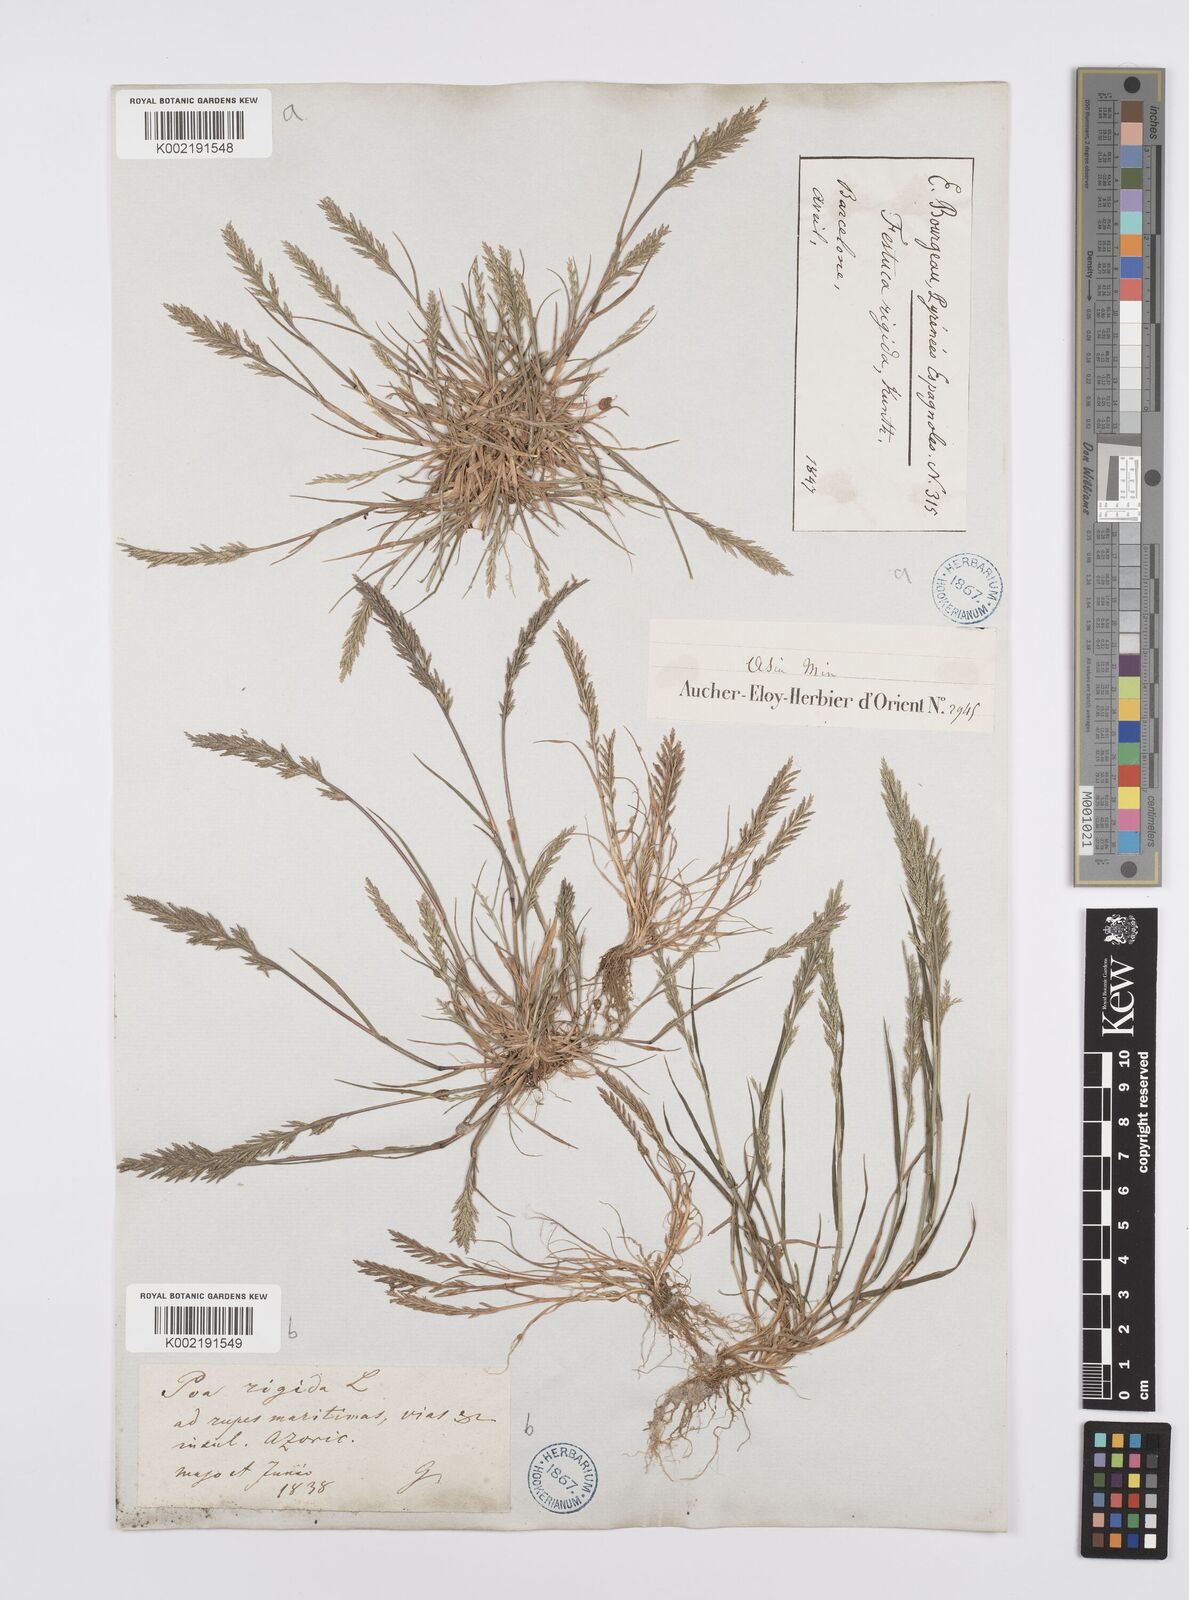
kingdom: Plantae
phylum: Tracheophyta
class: Liliopsida
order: Poales
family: Poaceae
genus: Catapodium
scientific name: Catapodium rigidum
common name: Fern-grass
